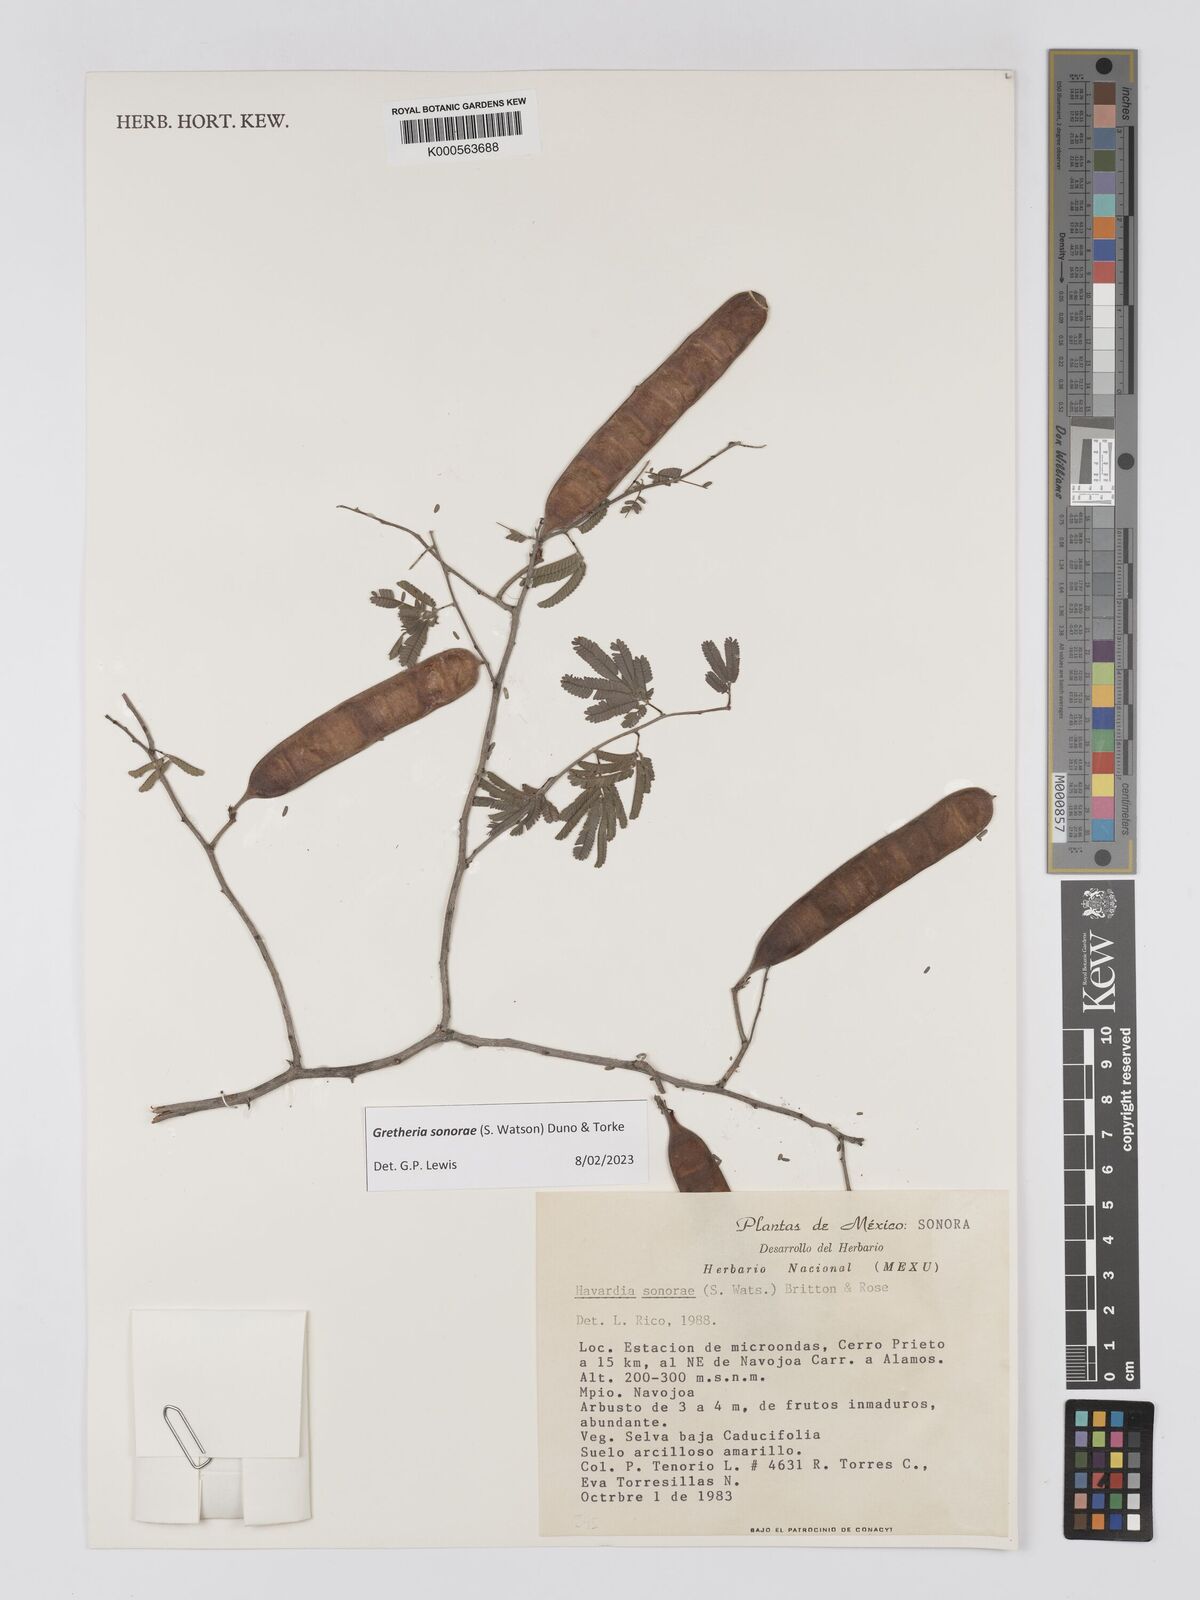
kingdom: Plantae
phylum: Tracheophyta
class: Magnoliopsida
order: Fabales
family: Fabaceae
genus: Havardia
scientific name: Havardia sonorae
